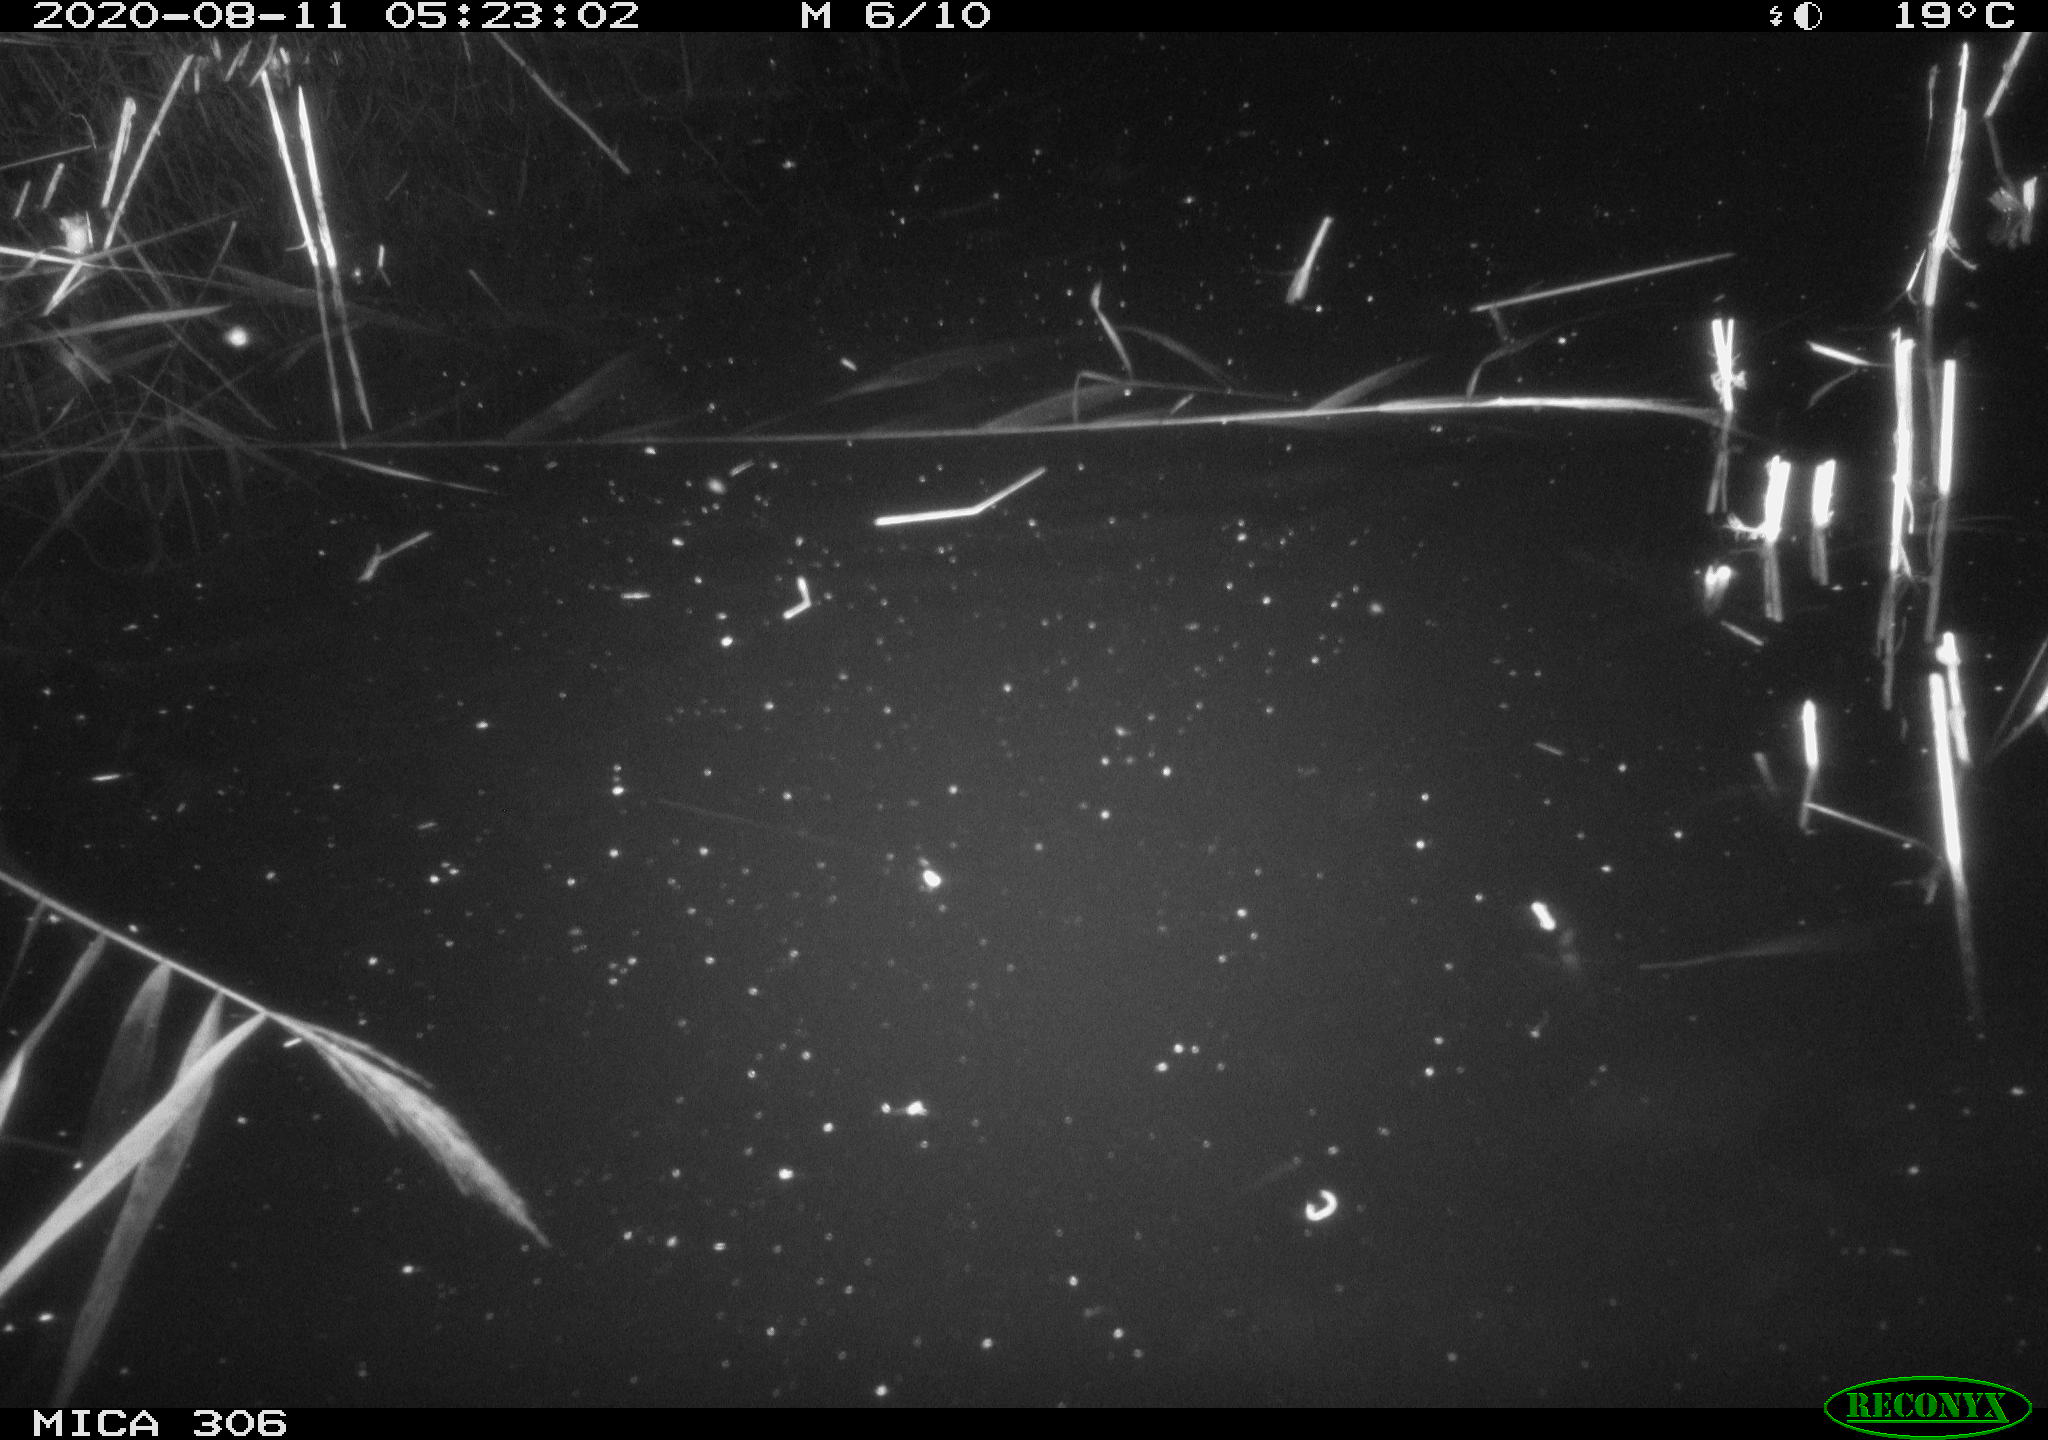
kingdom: Animalia
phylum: Chordata
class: Mammalia
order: Rodentia
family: Muridae
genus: Rattus
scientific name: Rattus norvegicus
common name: Brown rat
